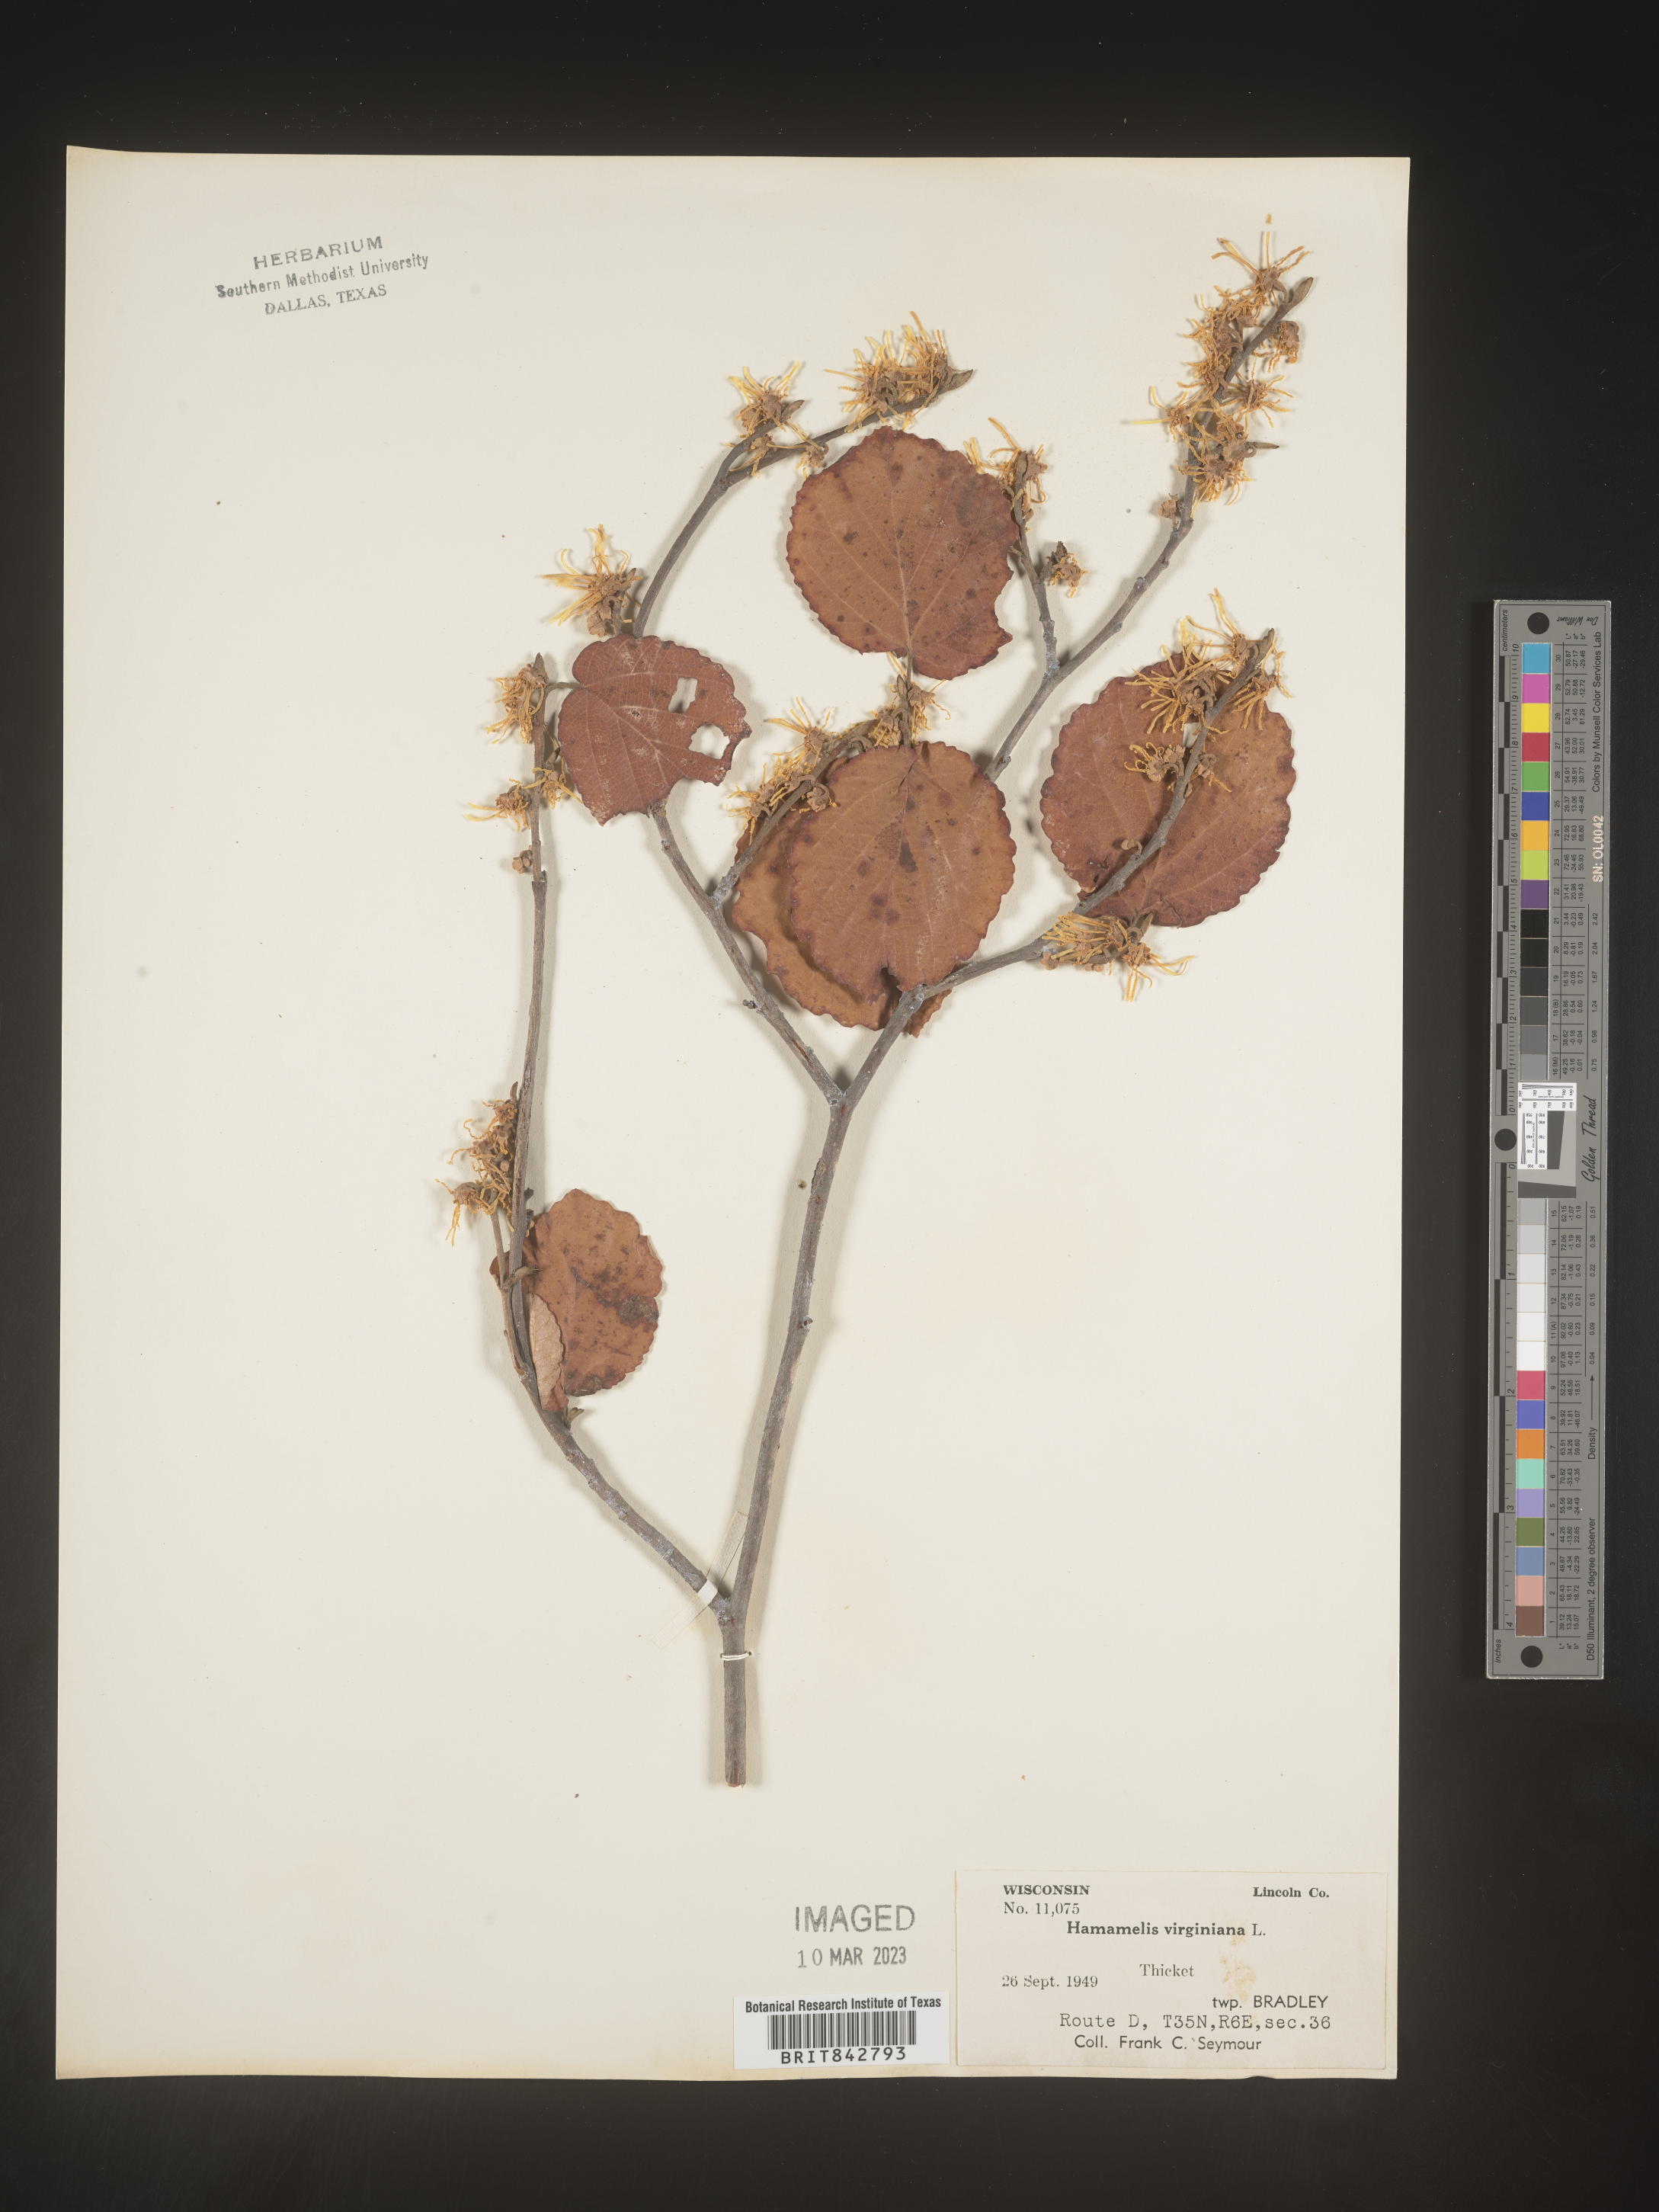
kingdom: Plantae
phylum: Tracheophyta
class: Magnoliopsida
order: Saxifragales
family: Hamamelidaceae
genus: Hamamelis
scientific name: Hamamelis virginiana
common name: Witch-hazel
